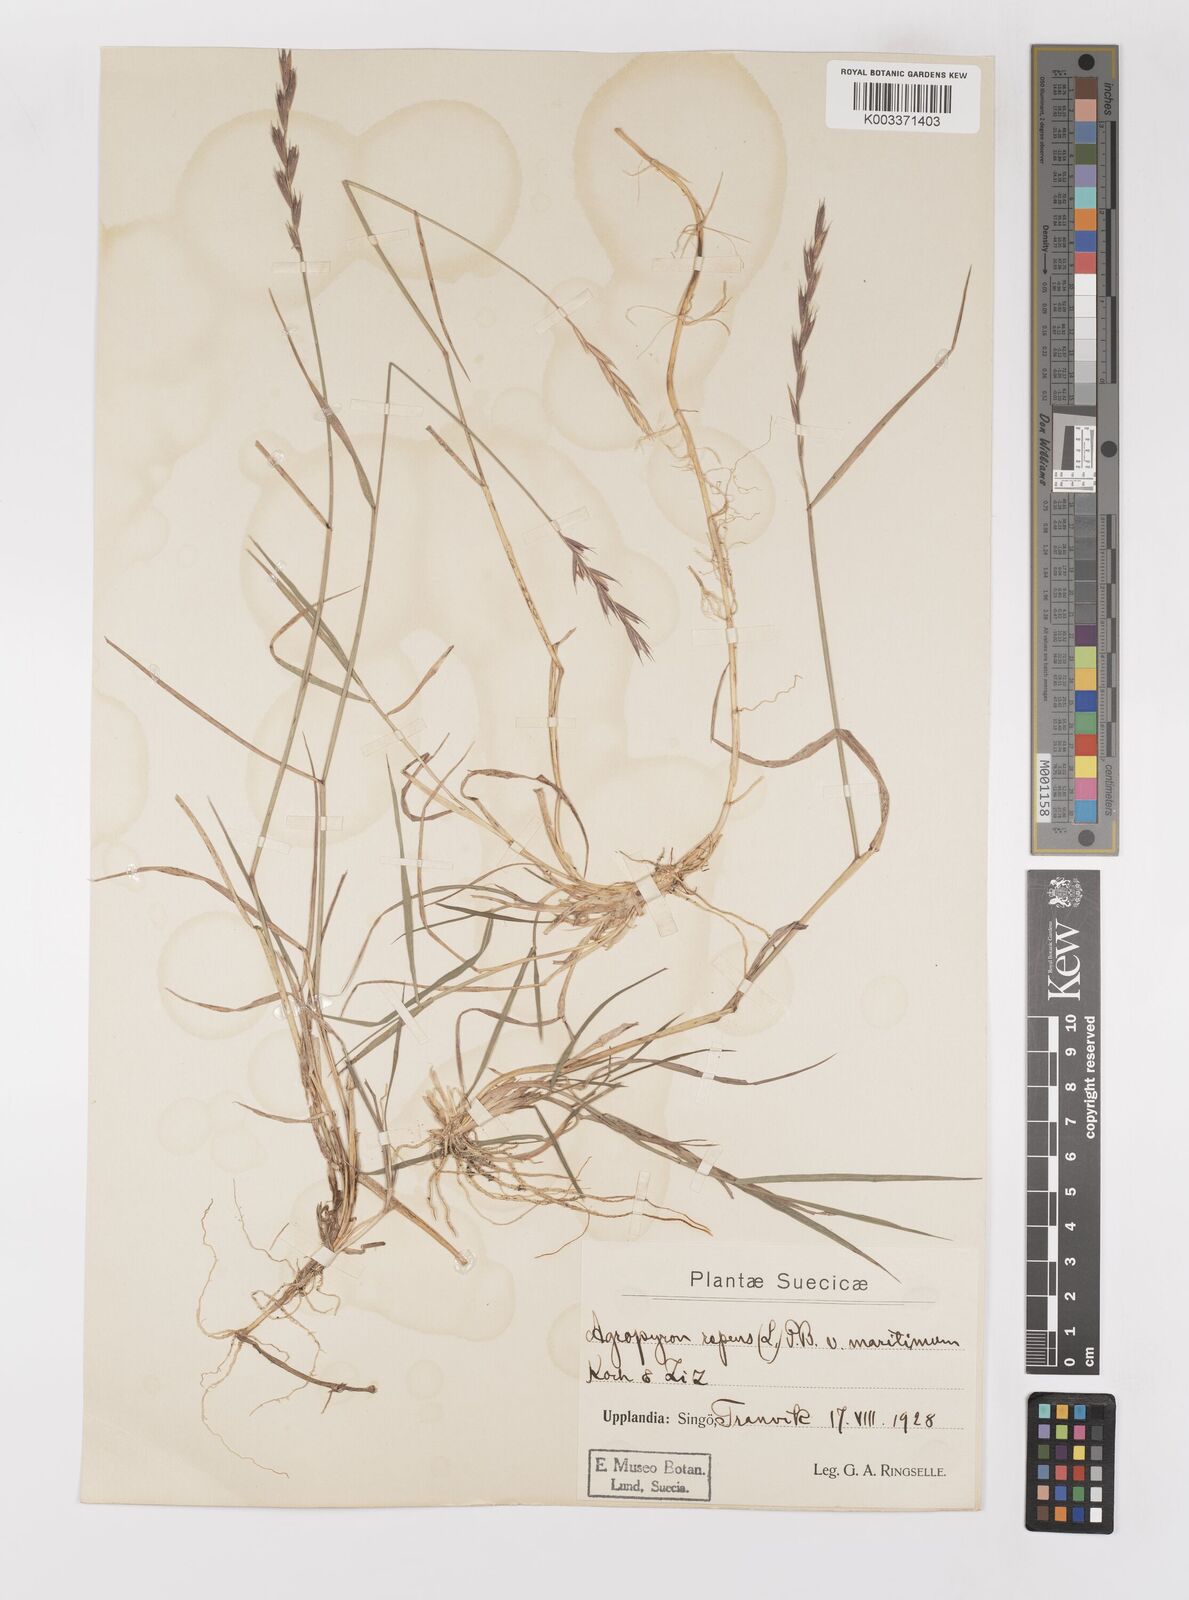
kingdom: Plantae
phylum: Tracheophyta
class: Liliopsida
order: Poales
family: Poaceae
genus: Elymus
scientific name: Elymus repens
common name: Quackgrass
